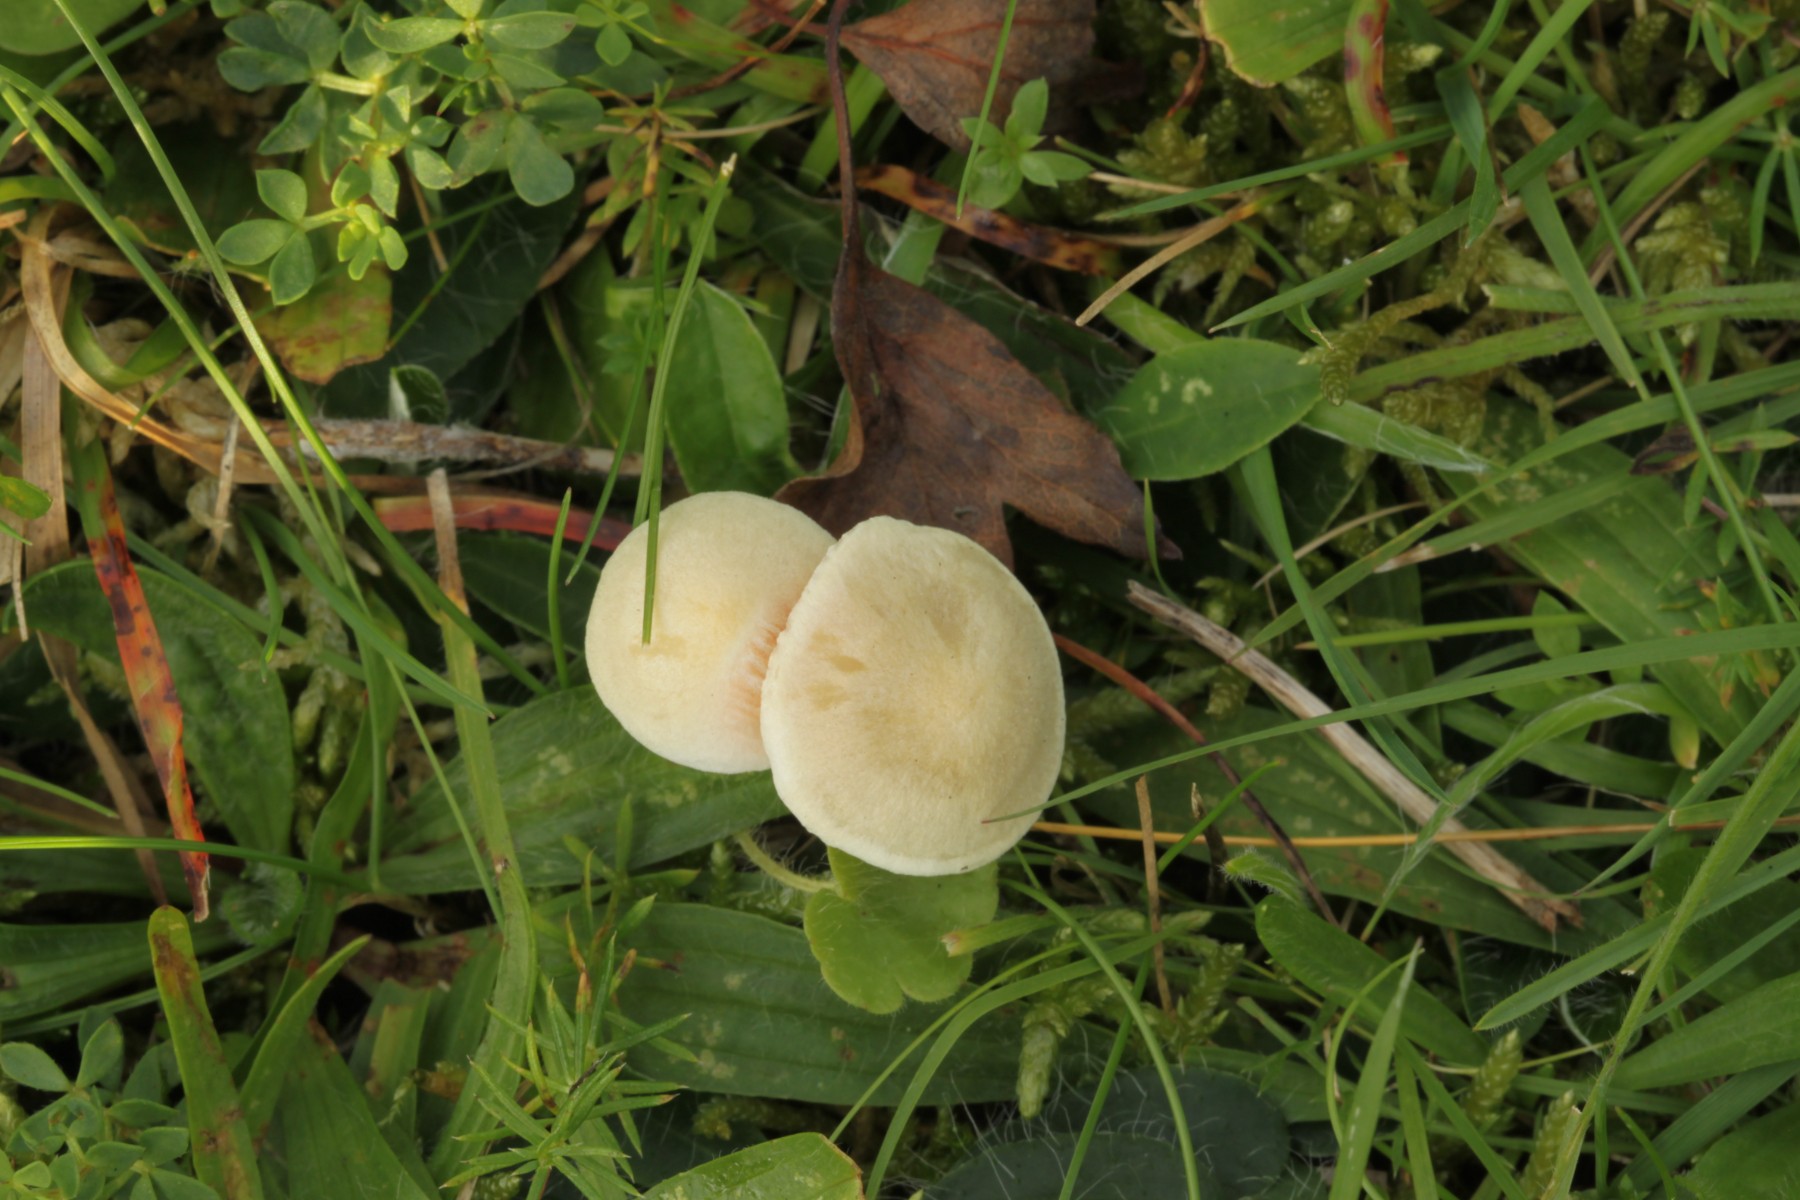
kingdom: Fungi
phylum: Basidiomycota
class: Agaricomycetes
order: Agaricales
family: Entolomataceae
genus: Entoloma
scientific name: Entoloma sericellum
